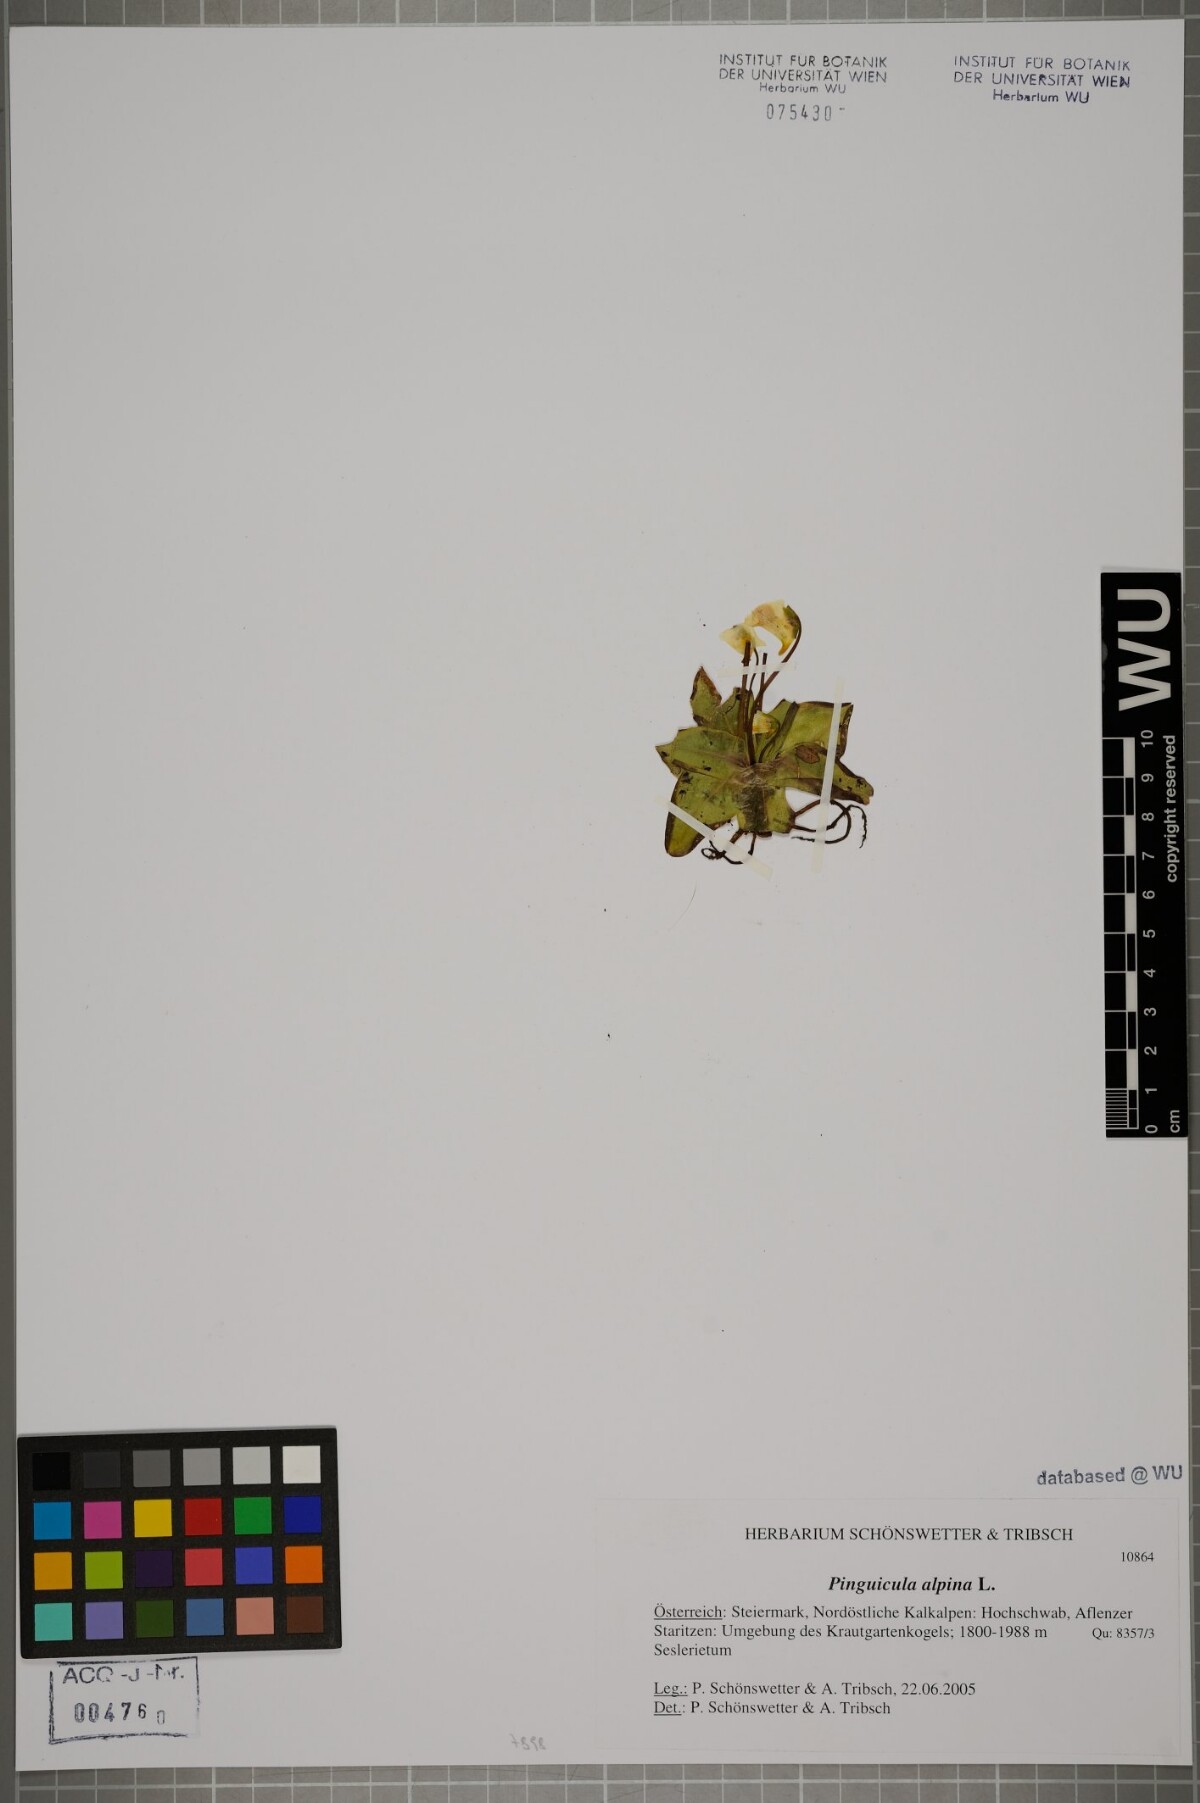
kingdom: Plantae
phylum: Tracheophyta
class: Magnoliopsida
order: Lamiales
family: Lentibulariaceae
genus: Pinguicula
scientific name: Pinguicula alpina
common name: Alpine butterwort
